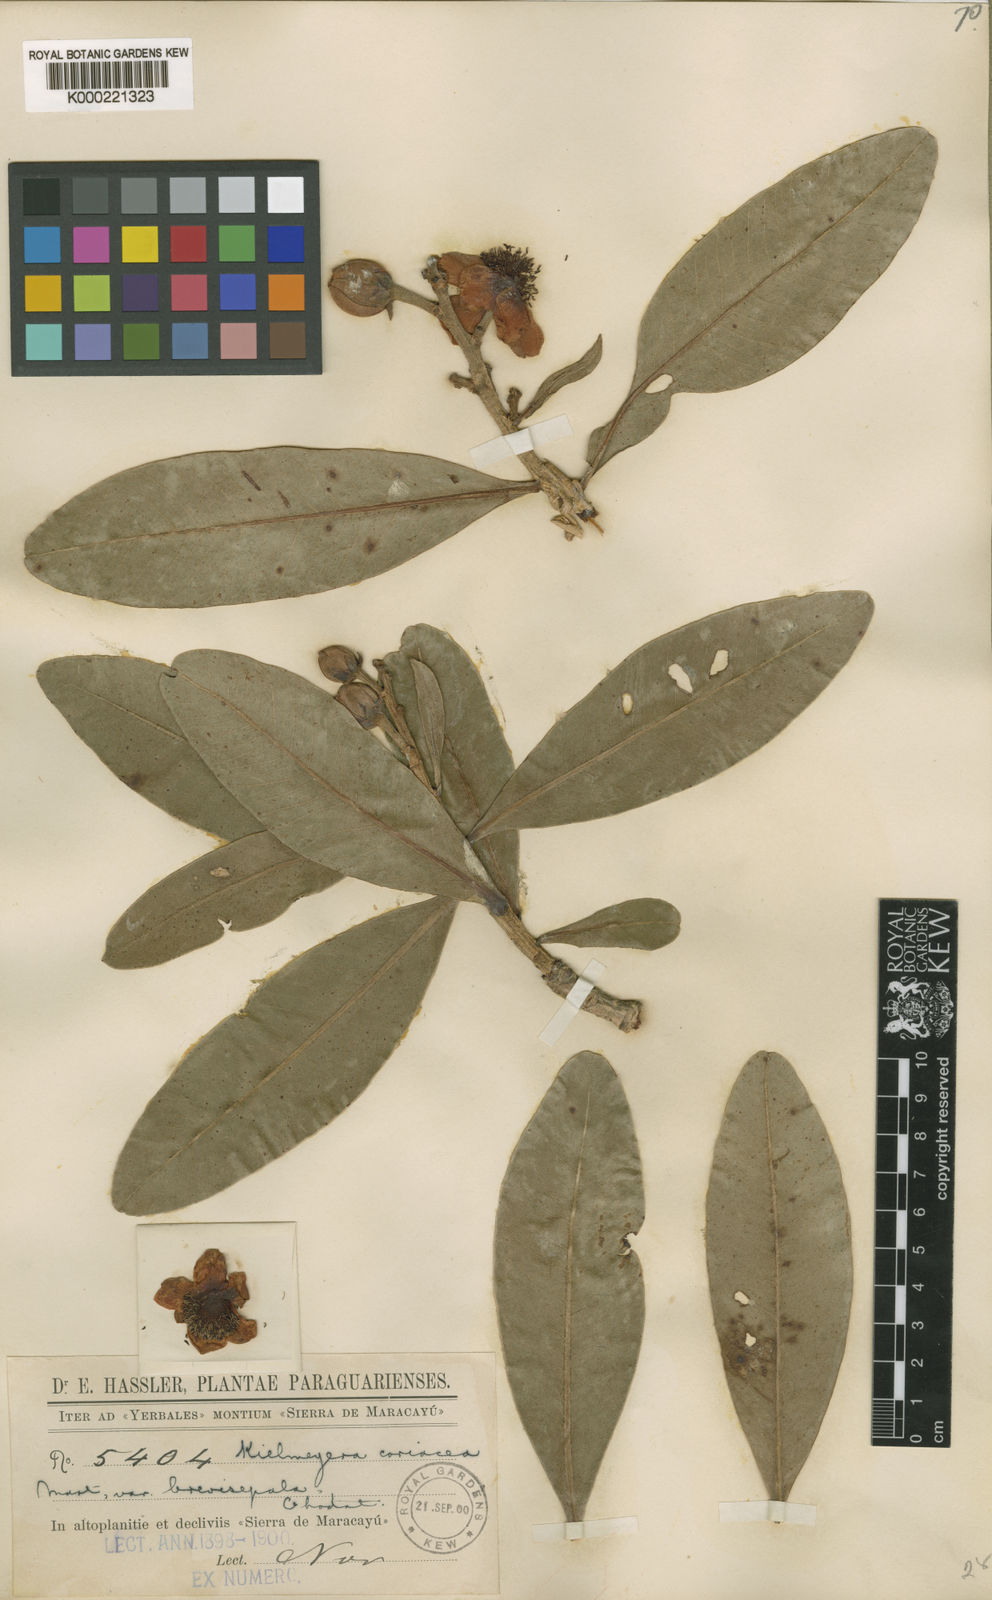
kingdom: Plantae
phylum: Tracheophyta
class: Magnoliopsida
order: Malpighiales
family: Calophyllaceae
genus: Kielmeyera
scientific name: Kielmeyera coriacea
